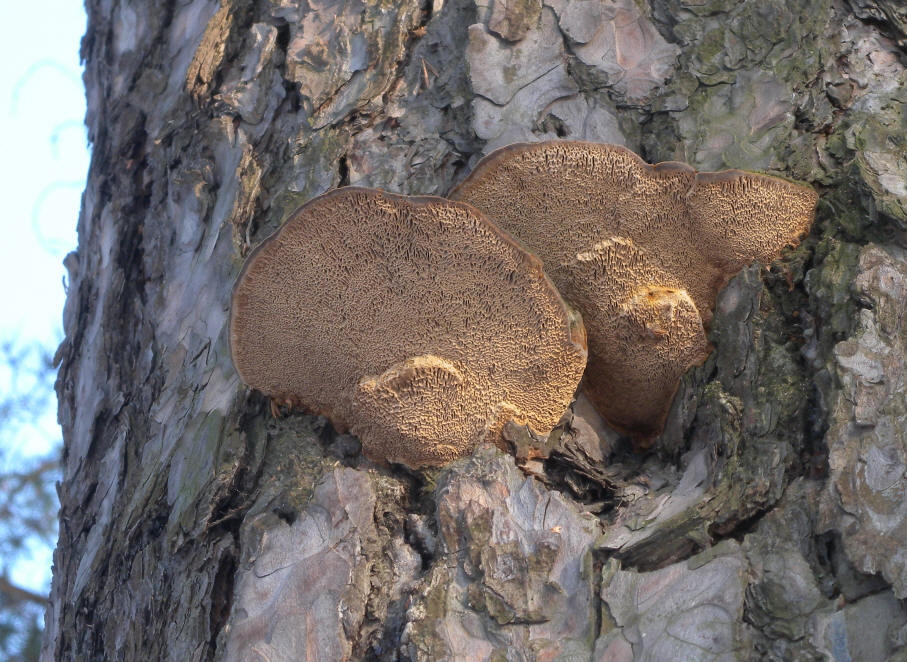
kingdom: Fungi
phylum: Basidiomycota
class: Agaricomycetes
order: Hymenochaetales
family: Hymenochaetaceae
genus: Porodaedalea
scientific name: Porodaedalea pini
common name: Pine bracket
